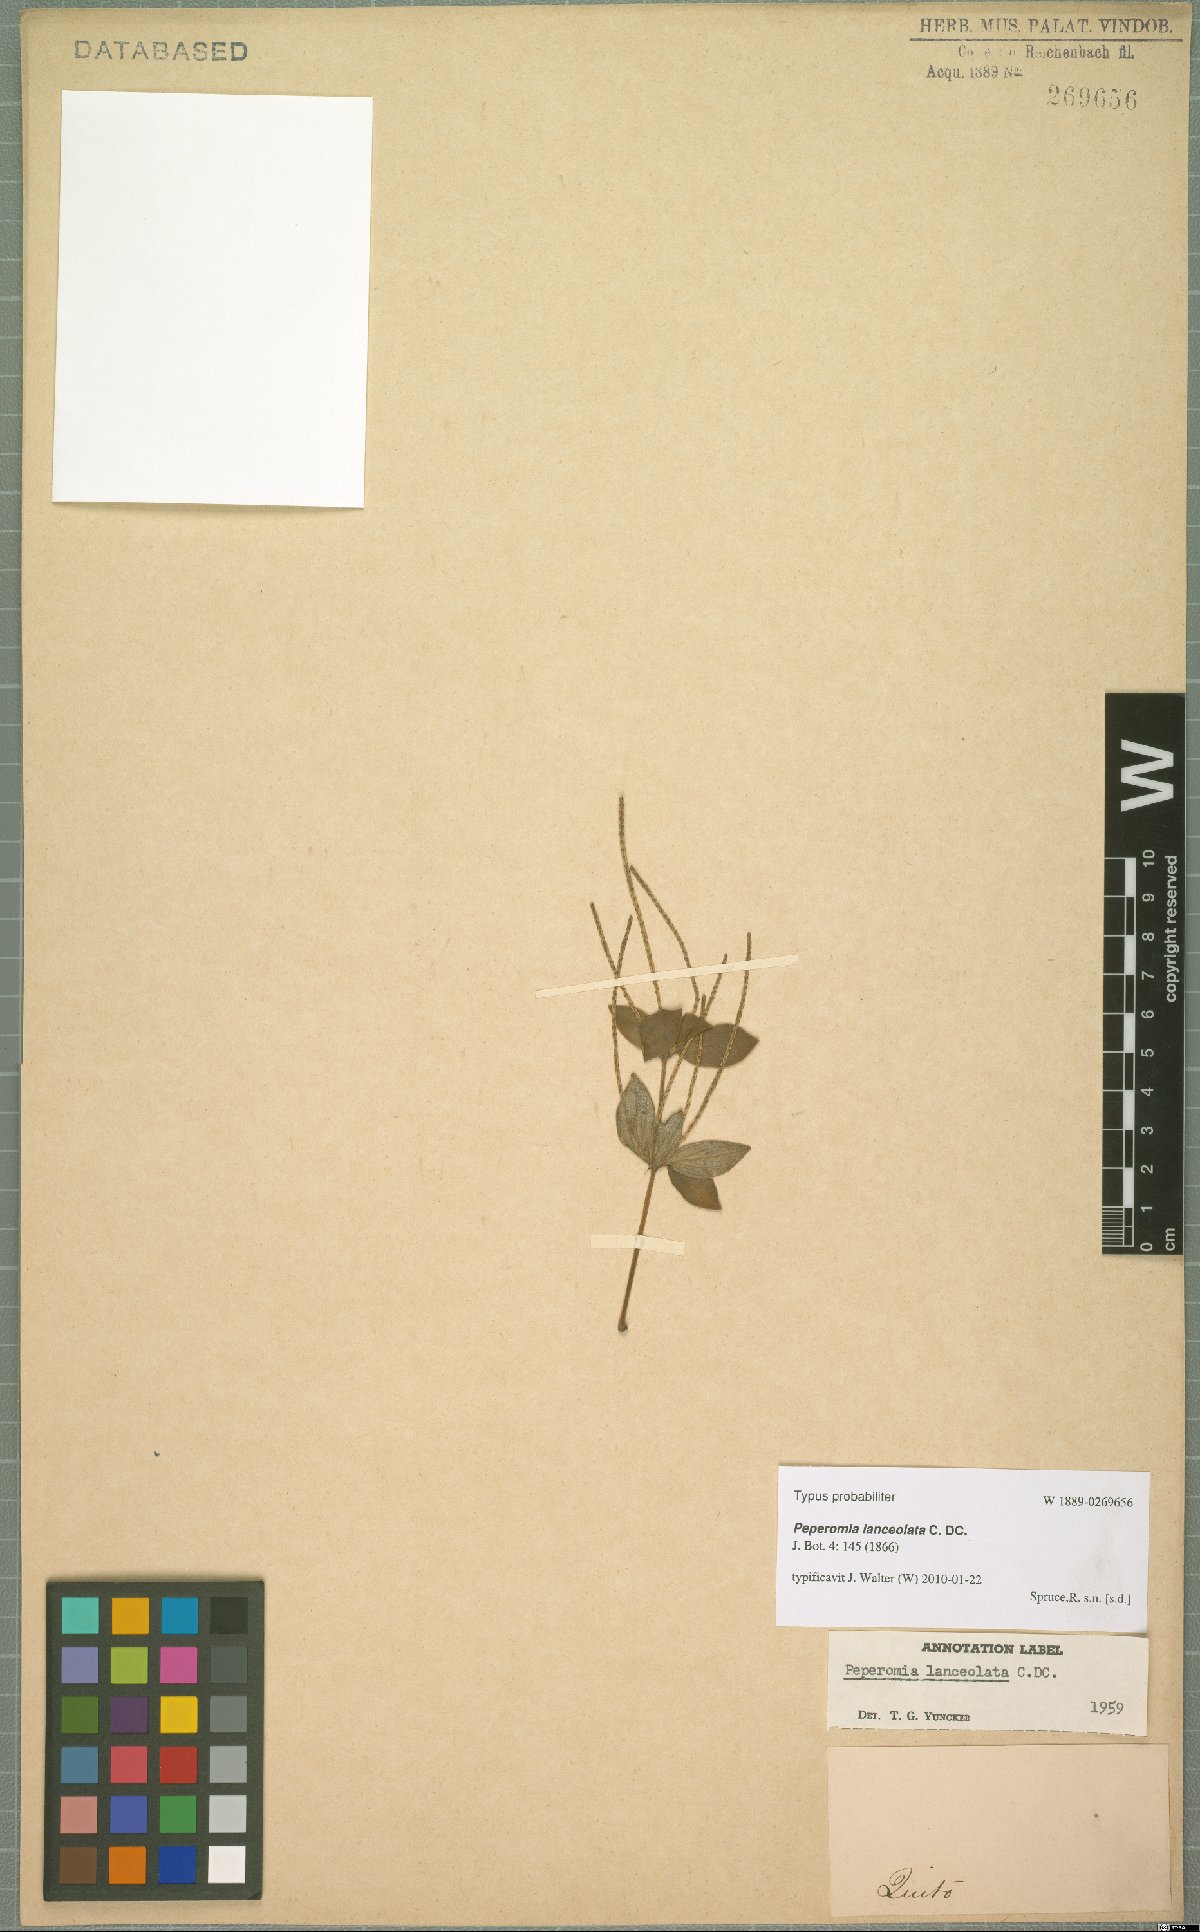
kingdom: Plantae
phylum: Tracheophyta
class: Magnoliopsida
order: Piperales
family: Piperaceae
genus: Peperomia
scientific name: Peperomia lanceolata
